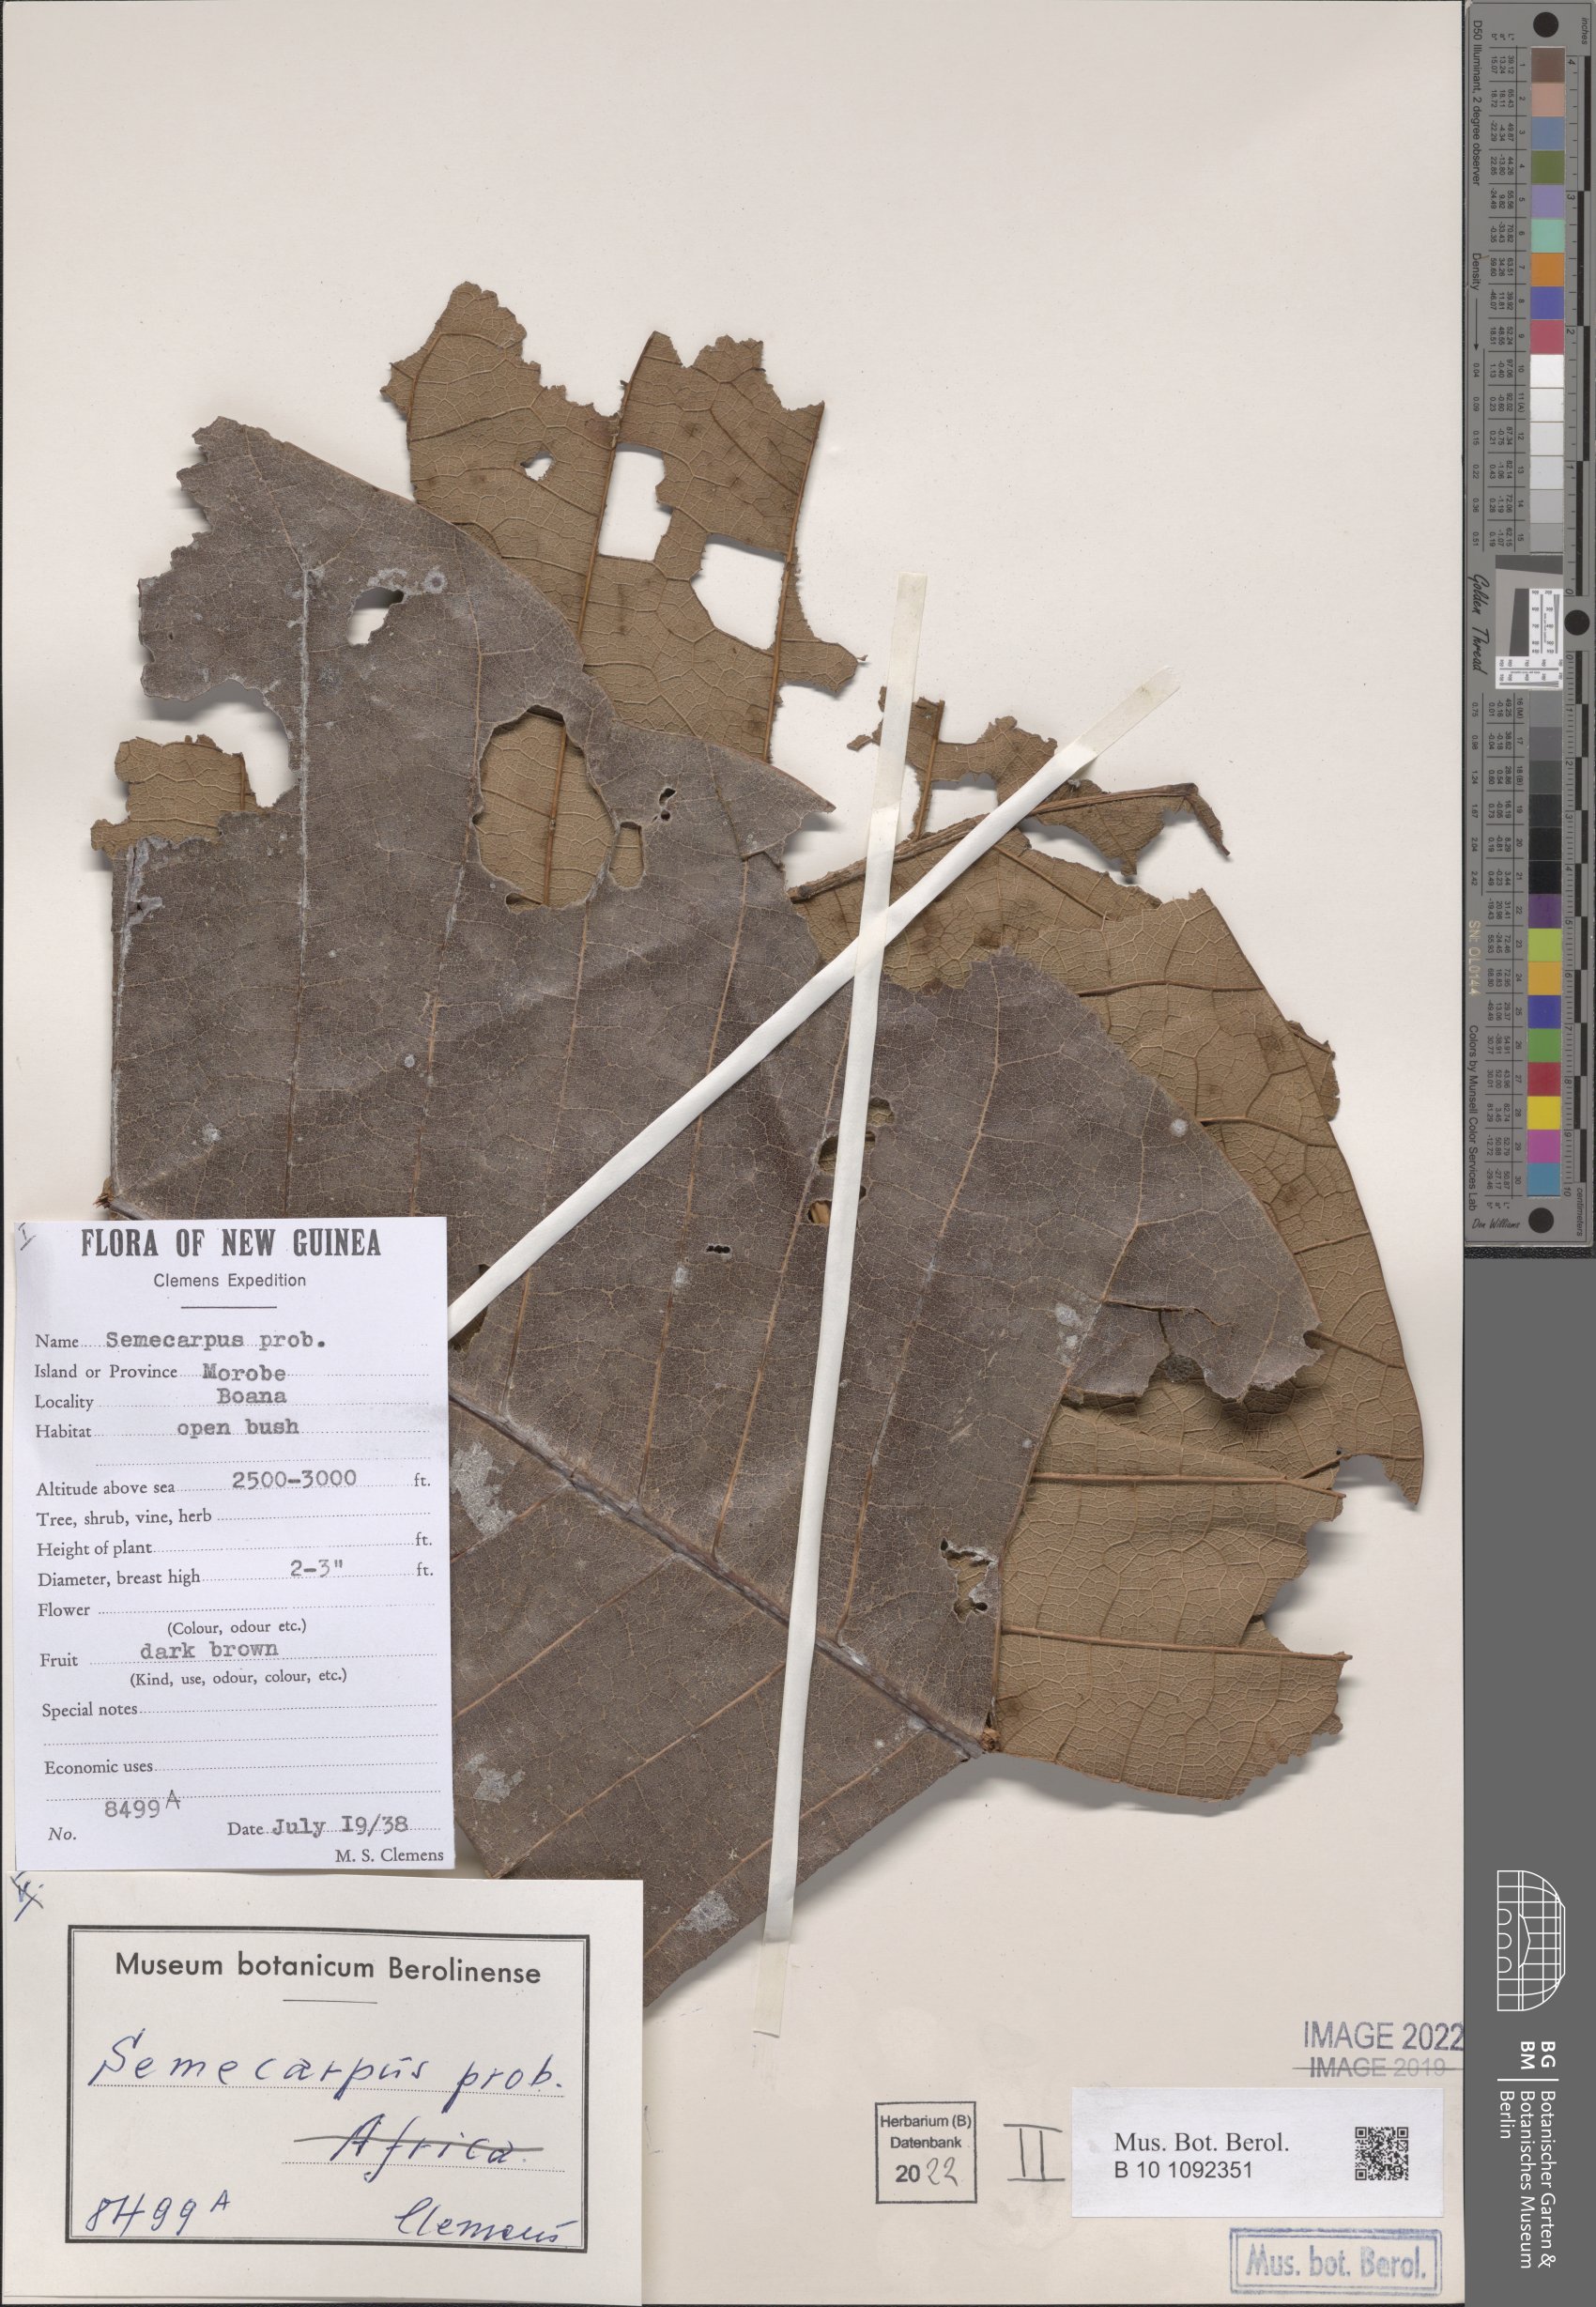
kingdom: Plantae
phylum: Tracheophyta
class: Magnoliopsida
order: Sapindales
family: Anacardiaceae
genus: Semecarpus
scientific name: Semecarpus
